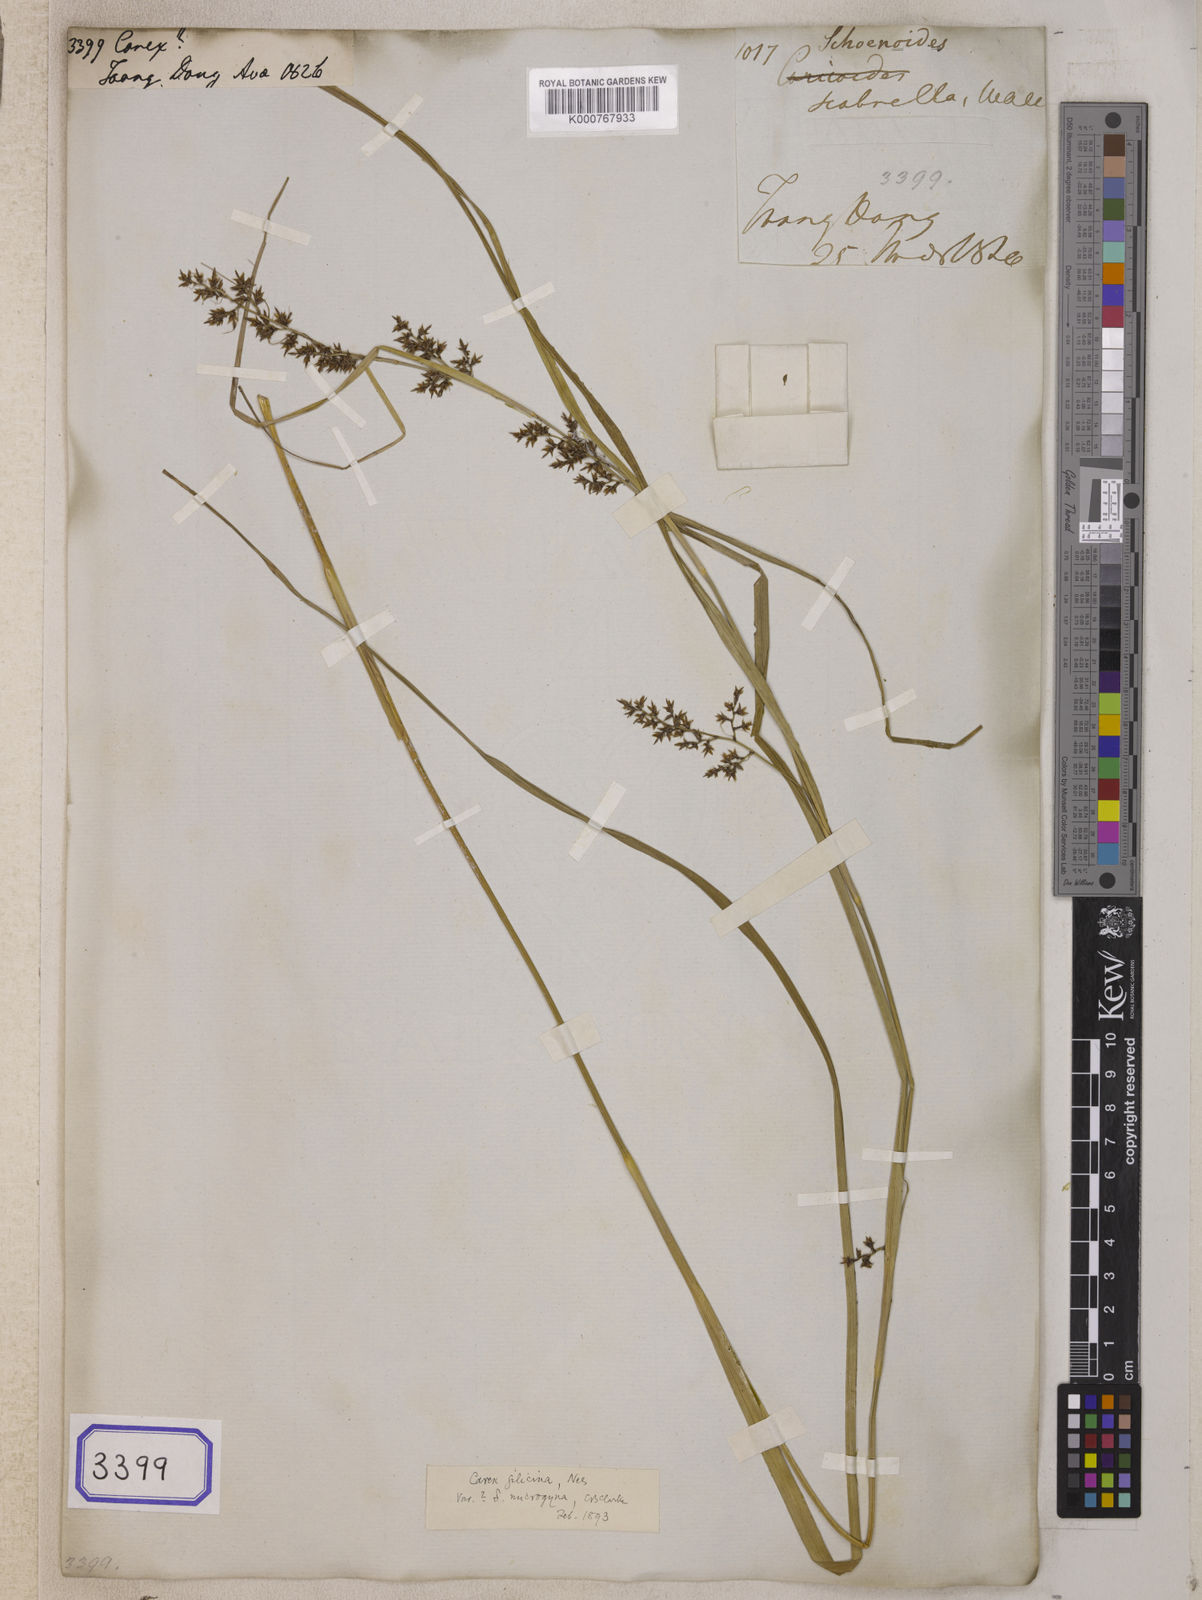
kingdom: Plantae
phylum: Tracheophyta
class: Liliopsida
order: Poales
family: Cyperaceae
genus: Carex
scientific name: Carex
